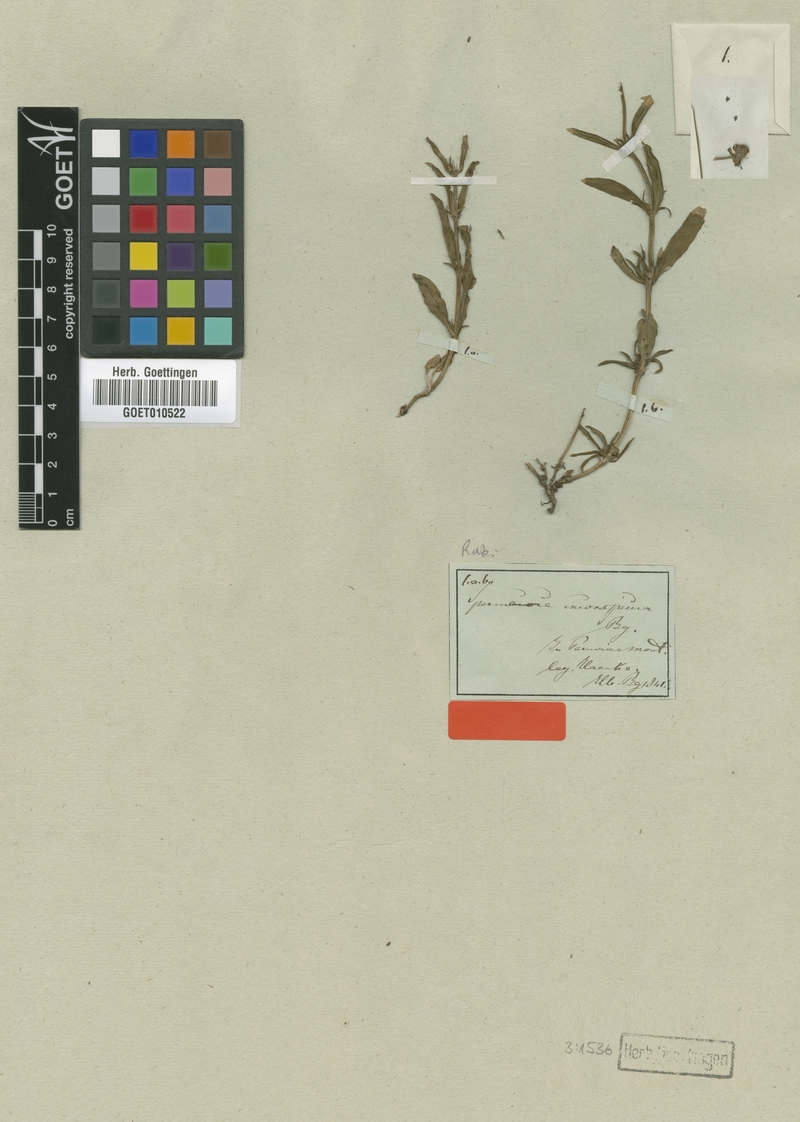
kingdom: Plantae
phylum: Tracheophyta
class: Magnoliopsida
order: Gentianales
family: Rubiaceae
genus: Spermacoce
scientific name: Spermacoce inconspicua
